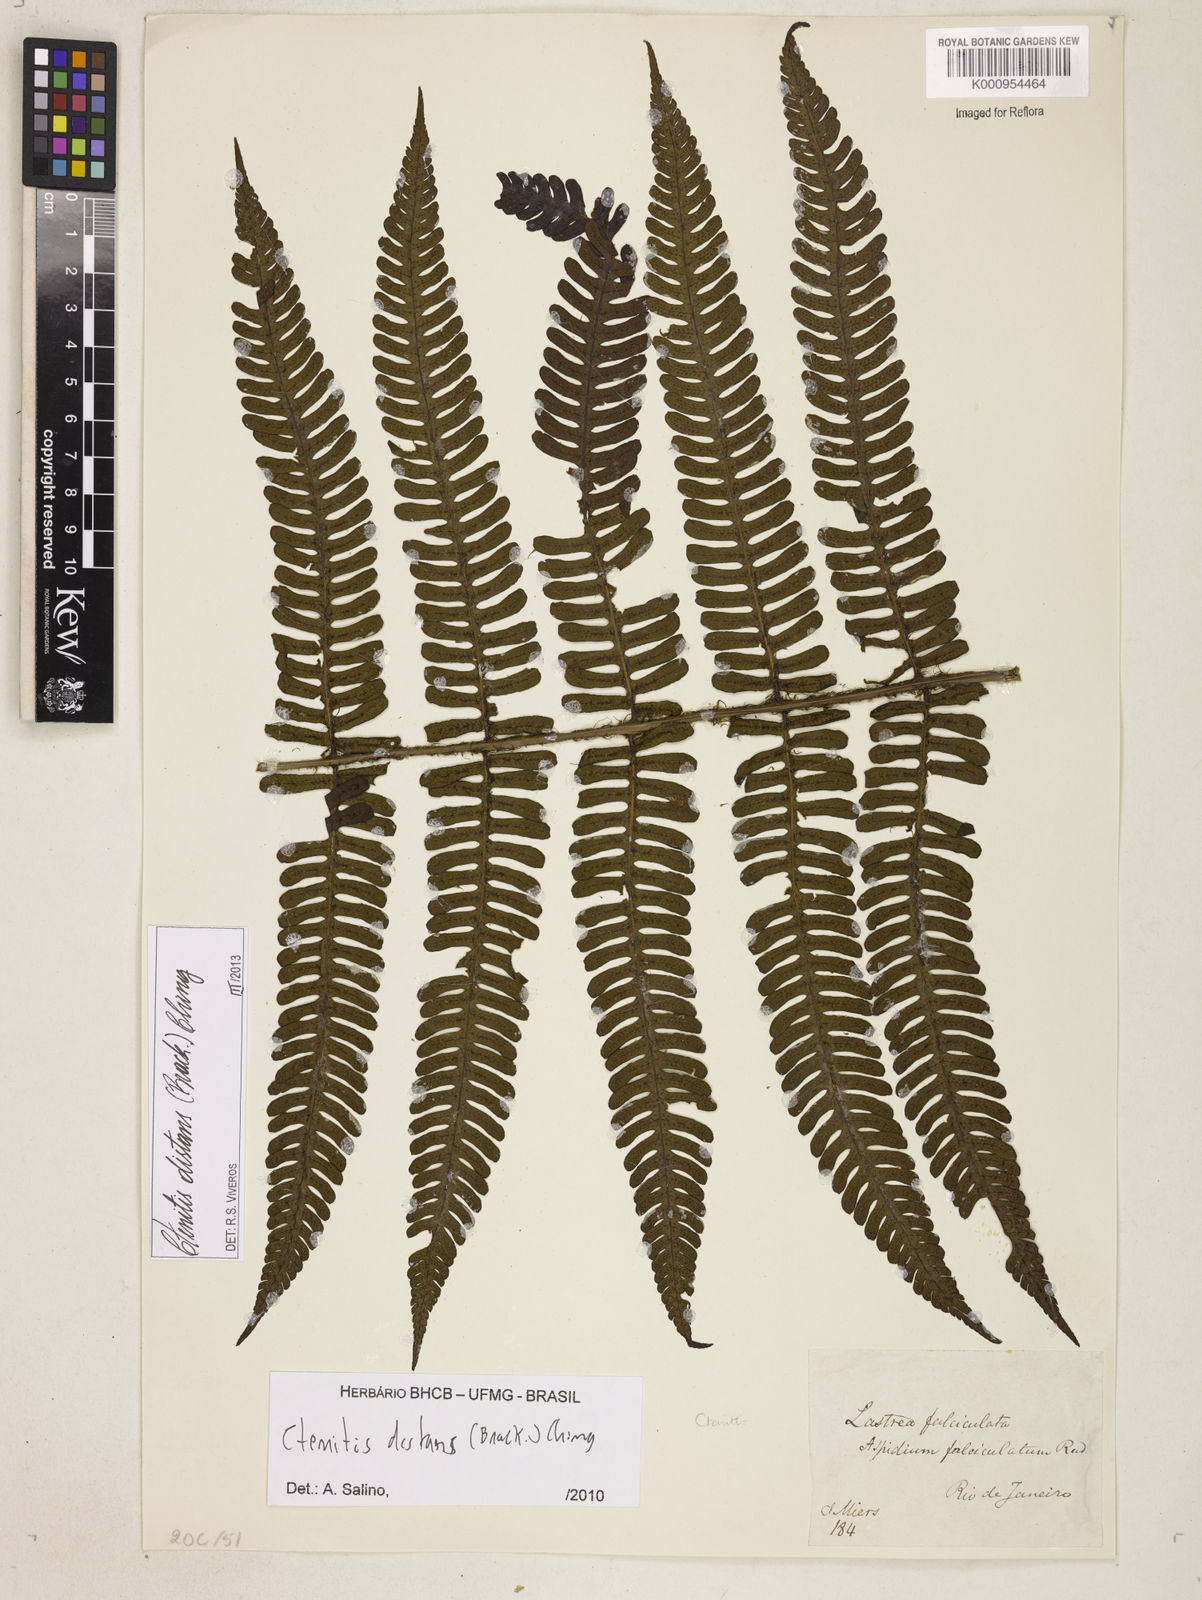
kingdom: Plantae
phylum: Tracheophyta
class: Polypodiopsida
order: Polypodiales
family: Dryopteridaceae
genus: Ctenitis
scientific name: Ctenitis distans
